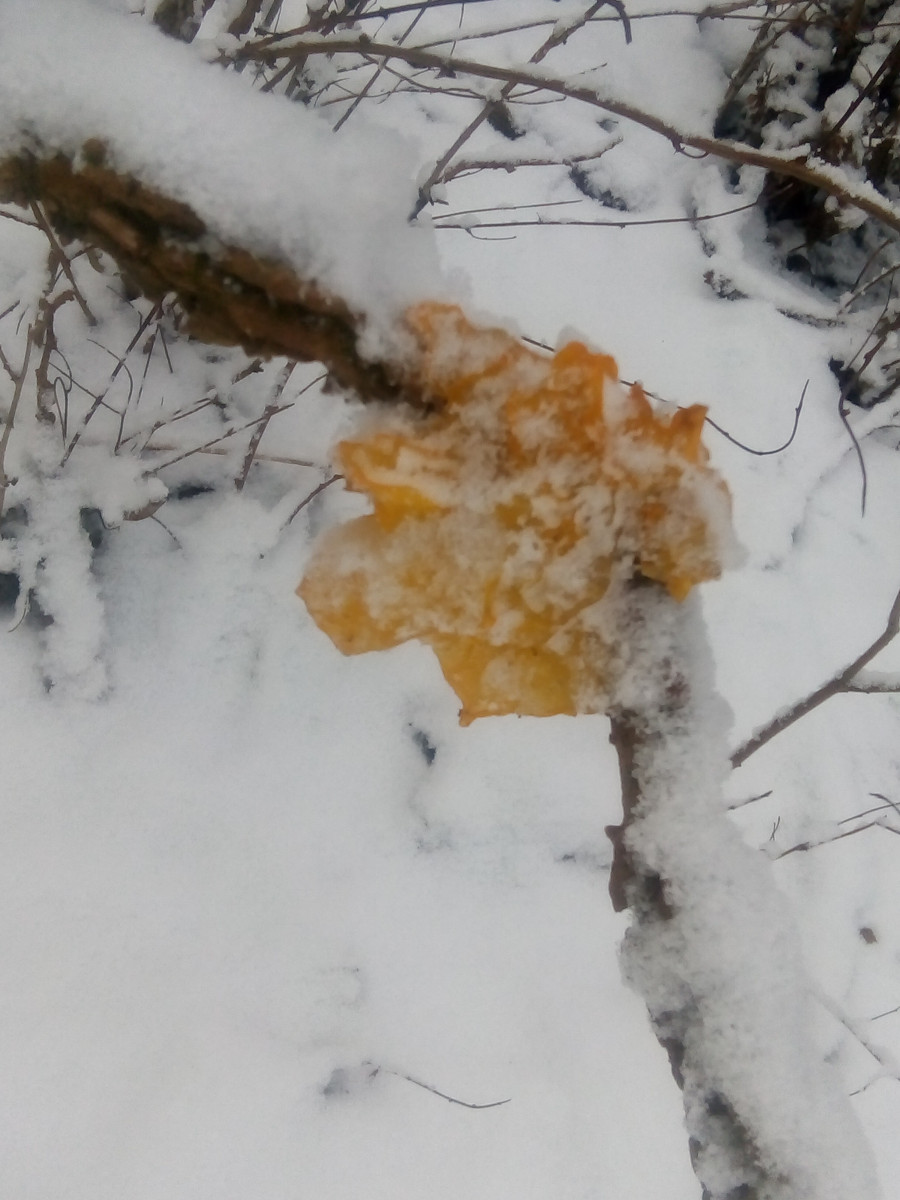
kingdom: Fungi
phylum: Basidiomycota
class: Tremellomycetes
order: Tremellales
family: Tremellaceae
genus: Tremella
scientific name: Tremella mesenterica
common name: gul bævresvamp
